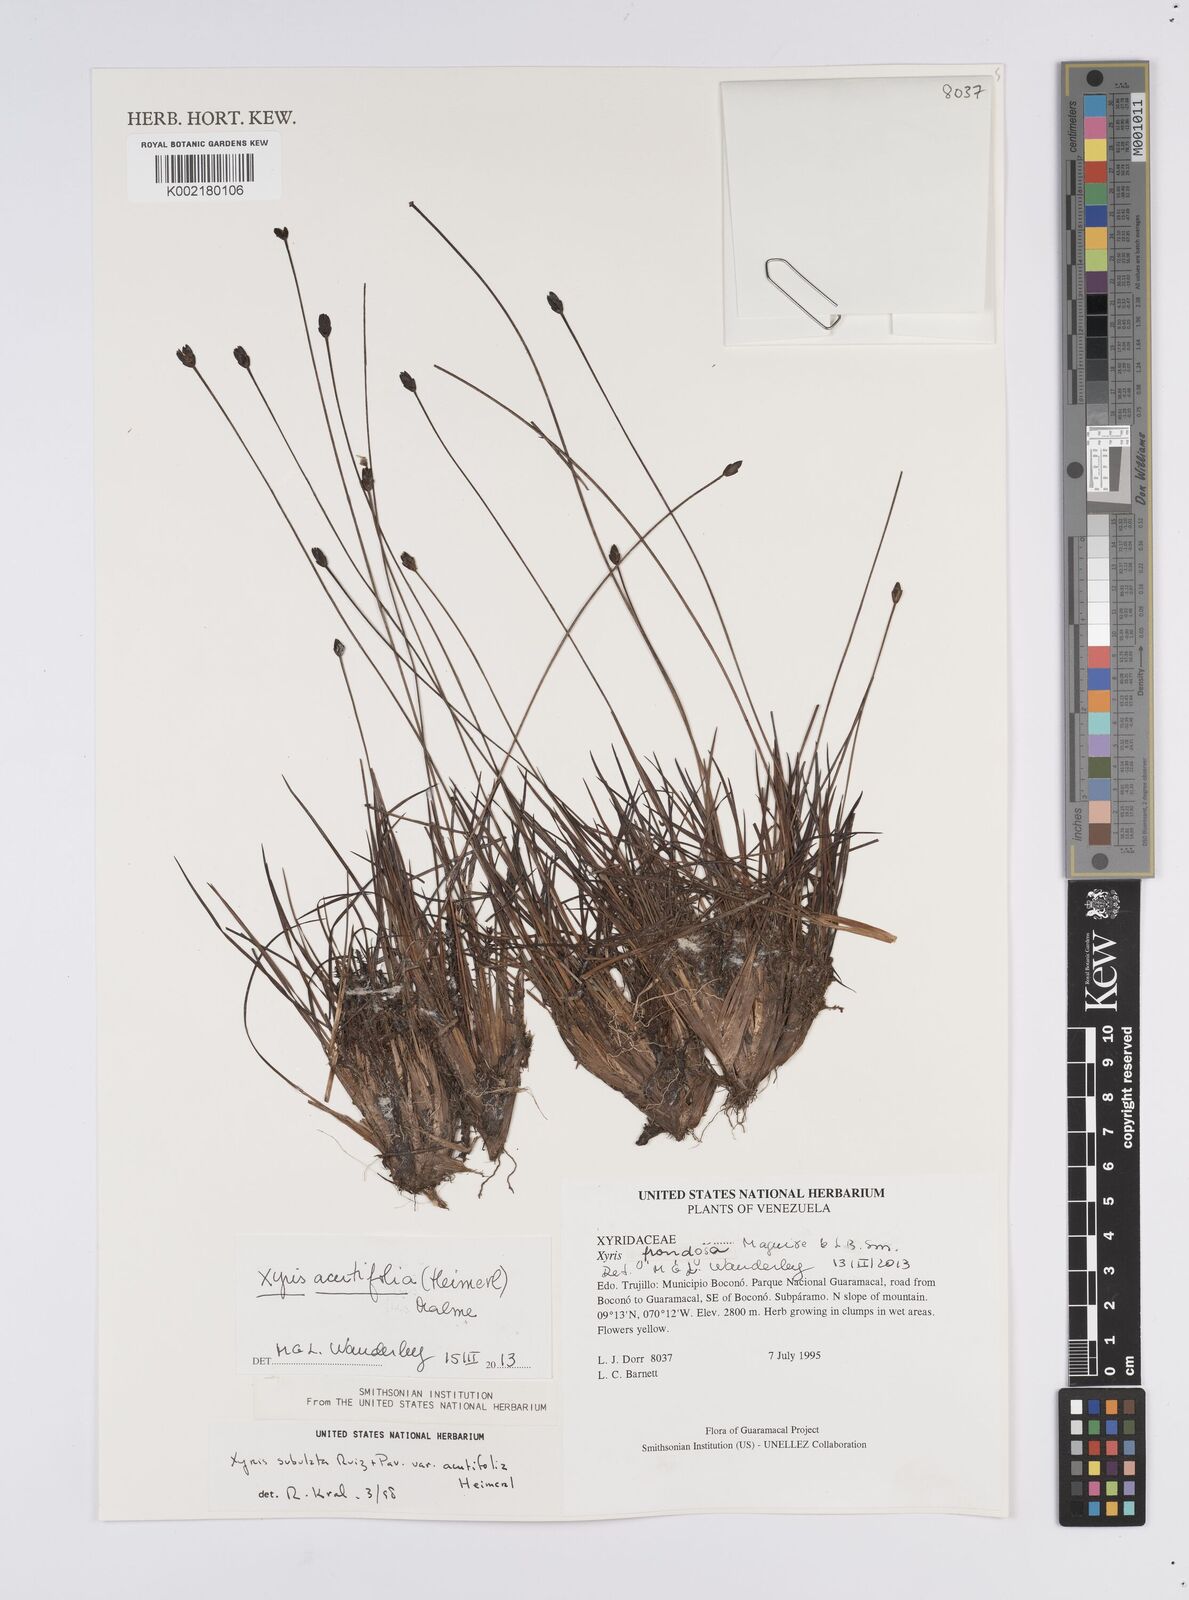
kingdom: Plantae
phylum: Tracheophyta
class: Liliopsida
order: Poales
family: Xyridaceae
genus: Xyris
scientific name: Xyris subulata
